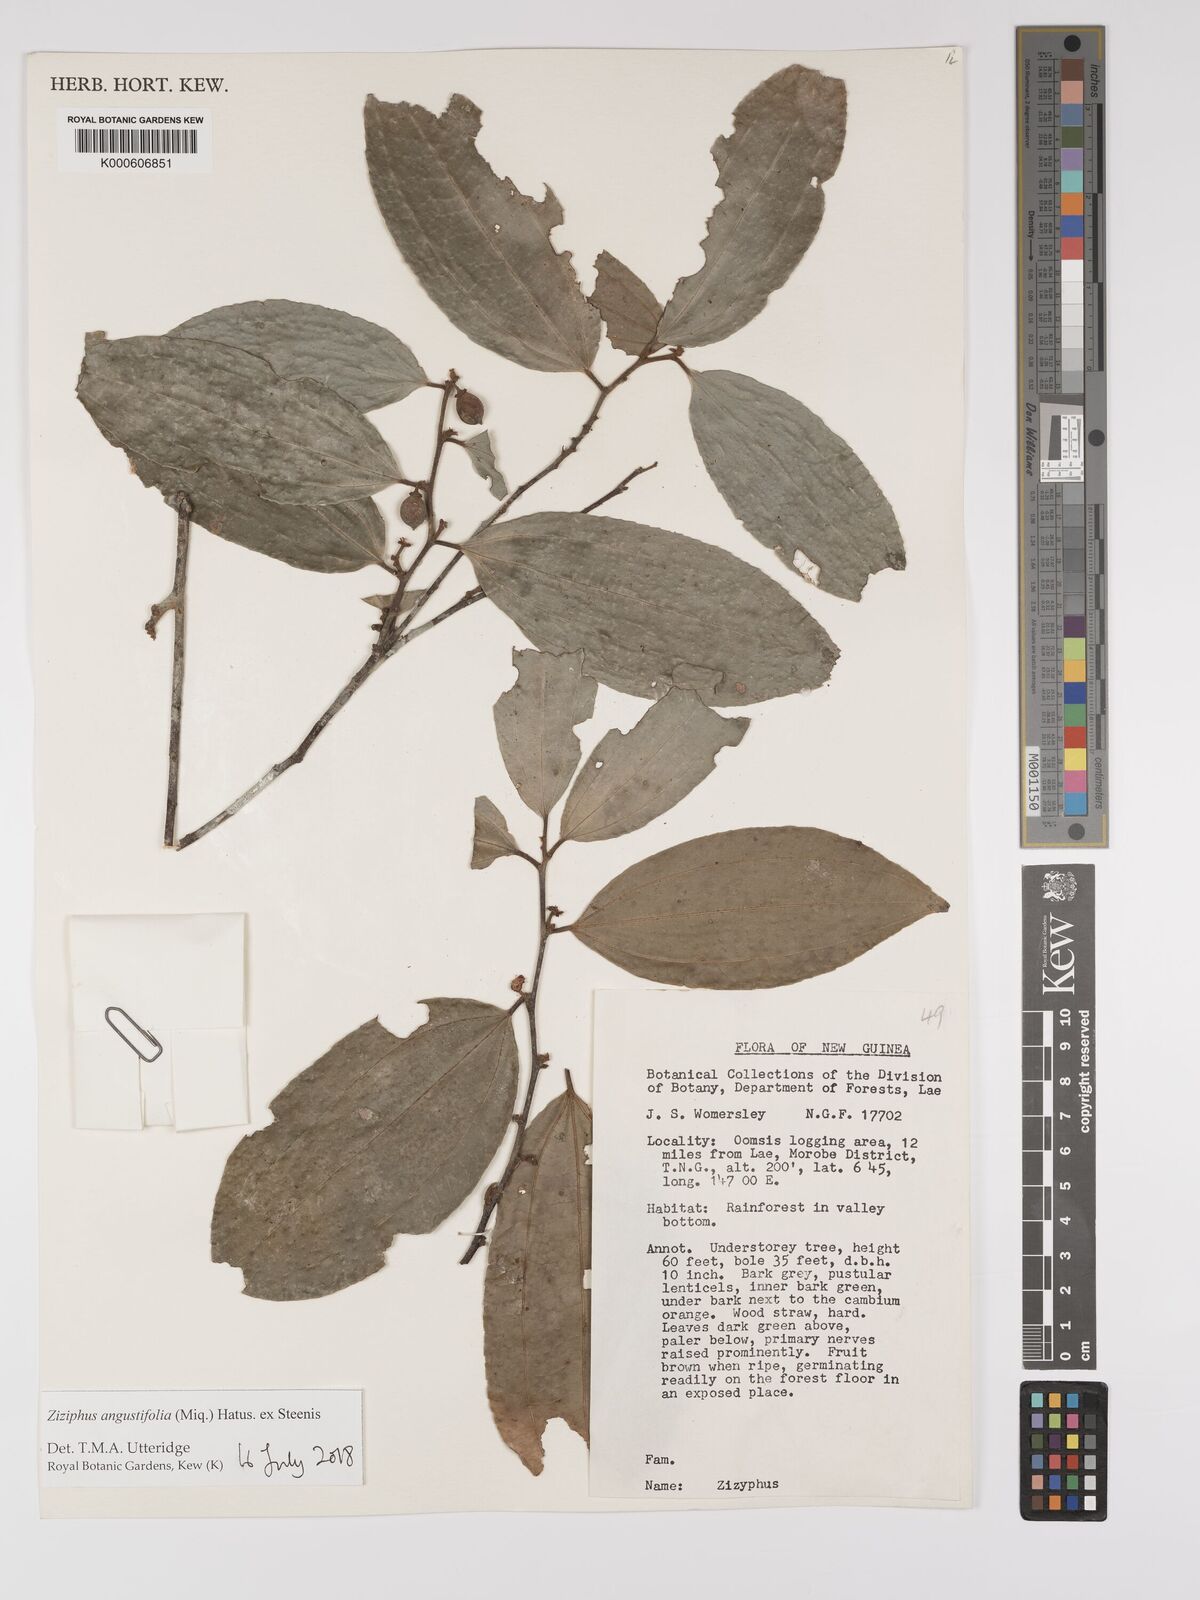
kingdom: Plantae
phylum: Tracheophyta
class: Magnoliopsida
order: Rosales
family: Rhamnaceae
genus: Ziziphus
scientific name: Ziziphus angustifolia
